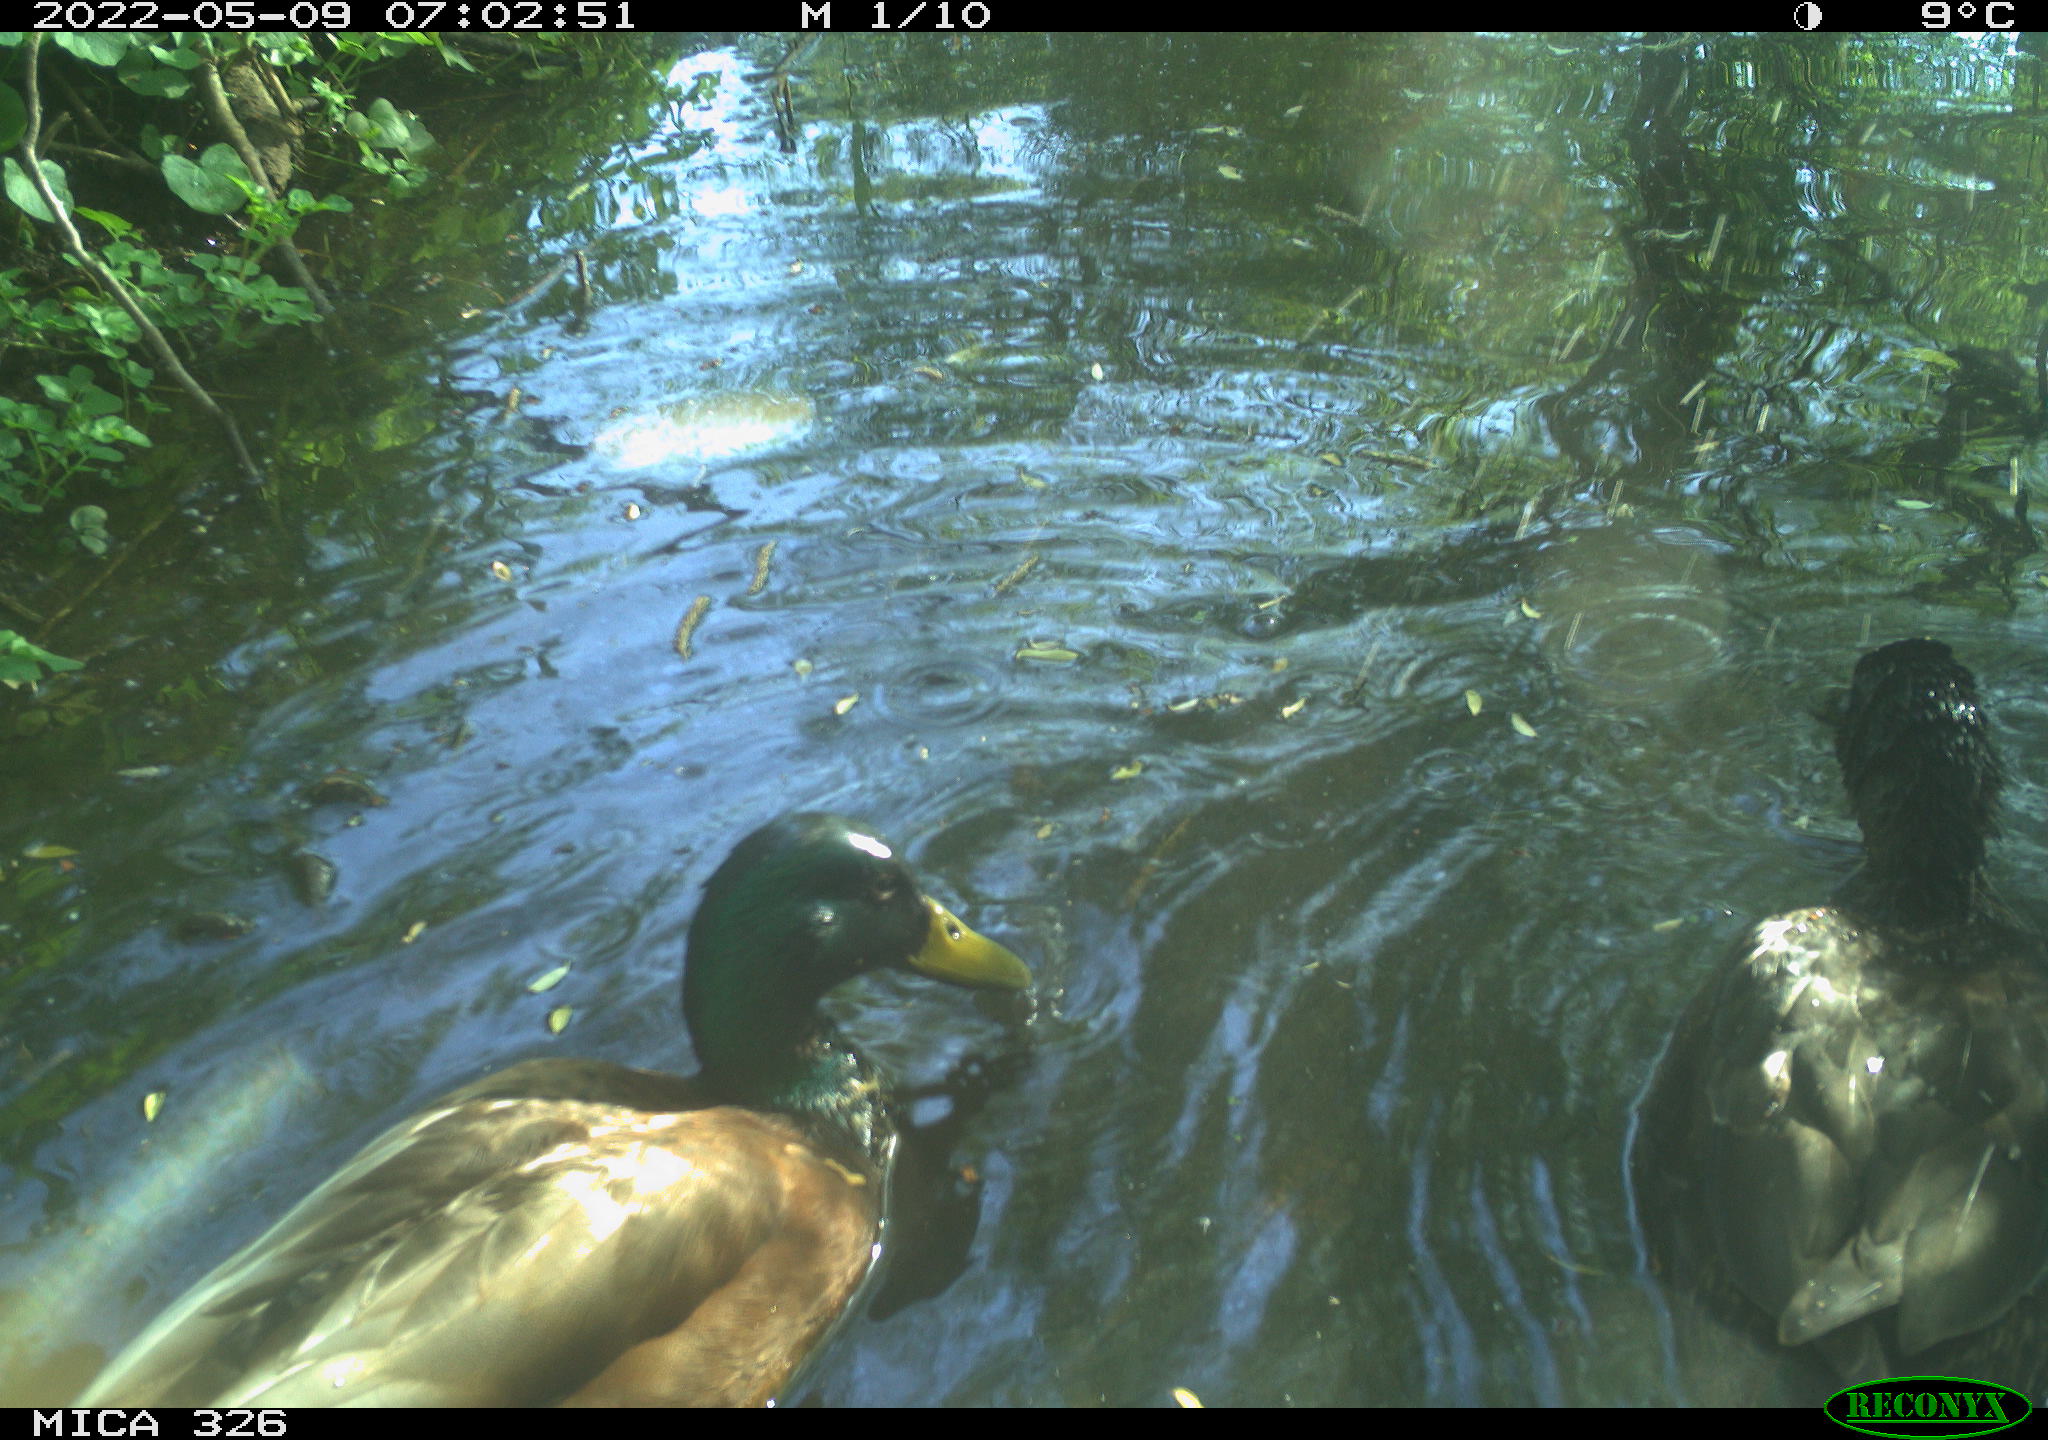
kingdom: Animalia
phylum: Chordata
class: Aves
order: Anseriformes
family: Anatidae
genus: Anas
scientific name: Anas
